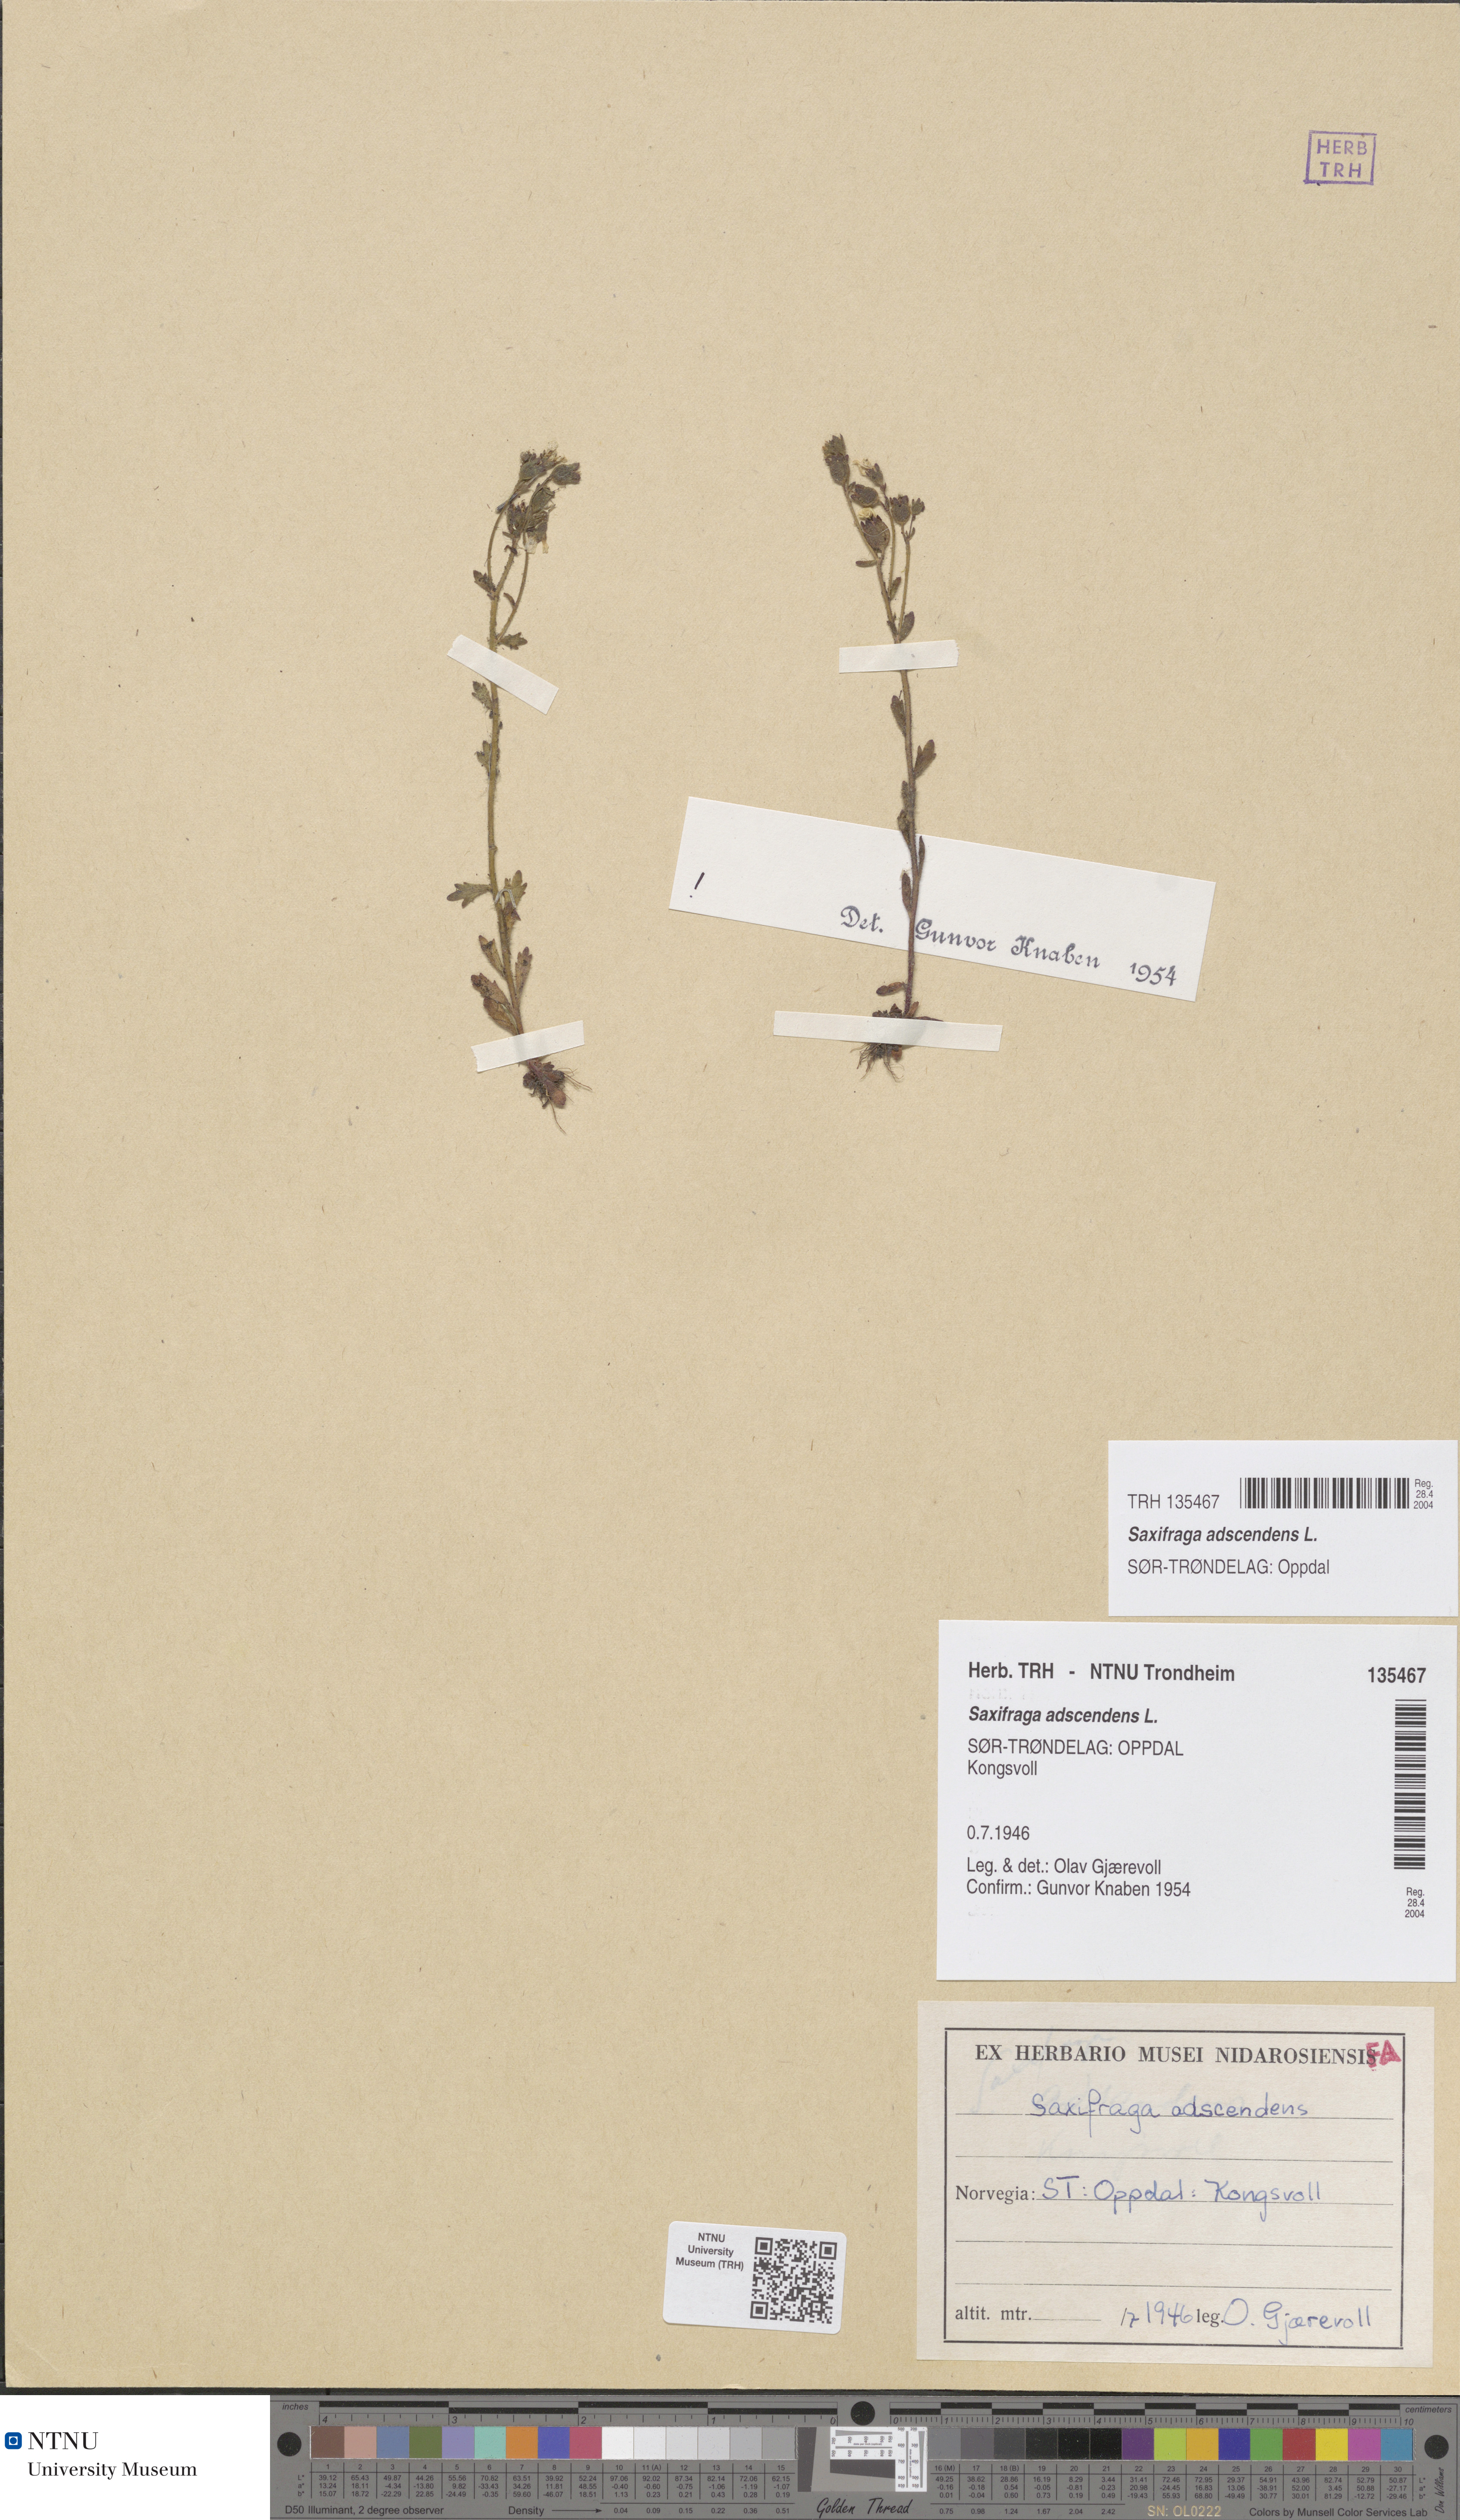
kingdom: Plantae
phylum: Tracheophyta
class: Magnoliopsida
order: Saxifragales
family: Saxifragaceae
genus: Saxifraga
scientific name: Saxifraga adscendens
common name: Ascending saxifrage
